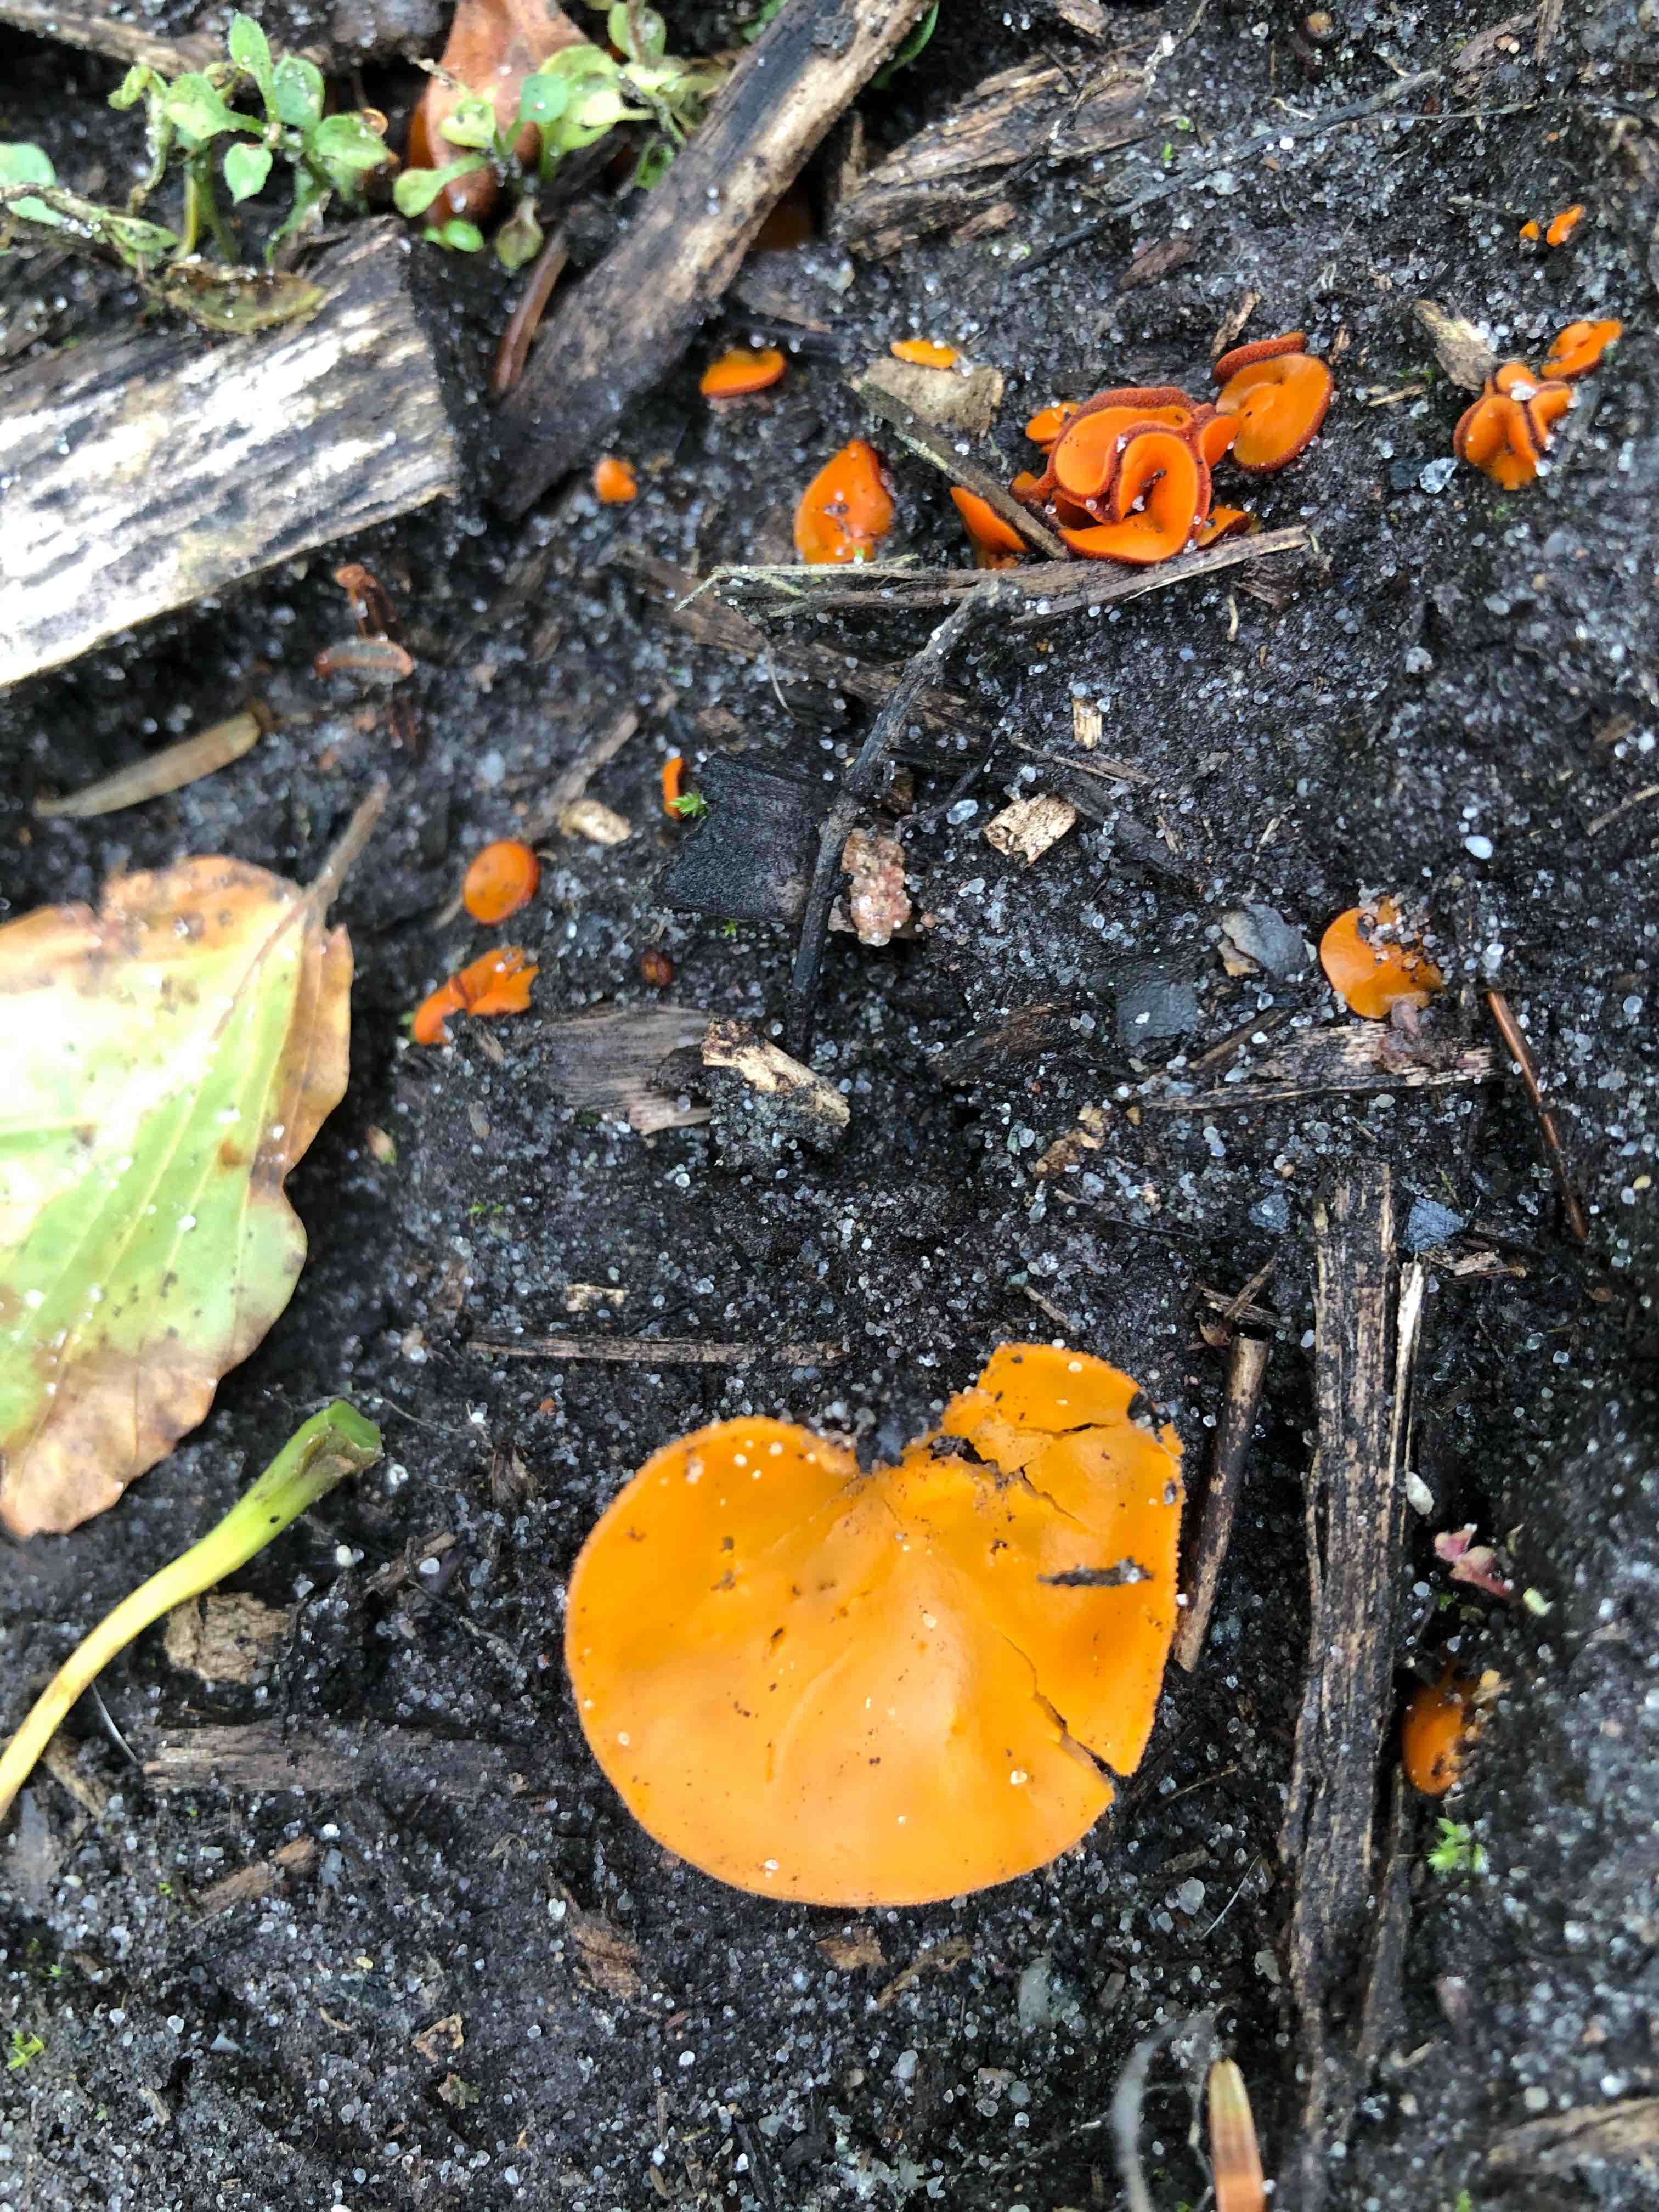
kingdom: Fungi
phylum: Ascomycota
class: Pezizomycetes
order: Pezizales
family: Pyronemataceae
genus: Melastiza
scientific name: Melastiza cornubiensis
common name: mørkrandet rødbæger
